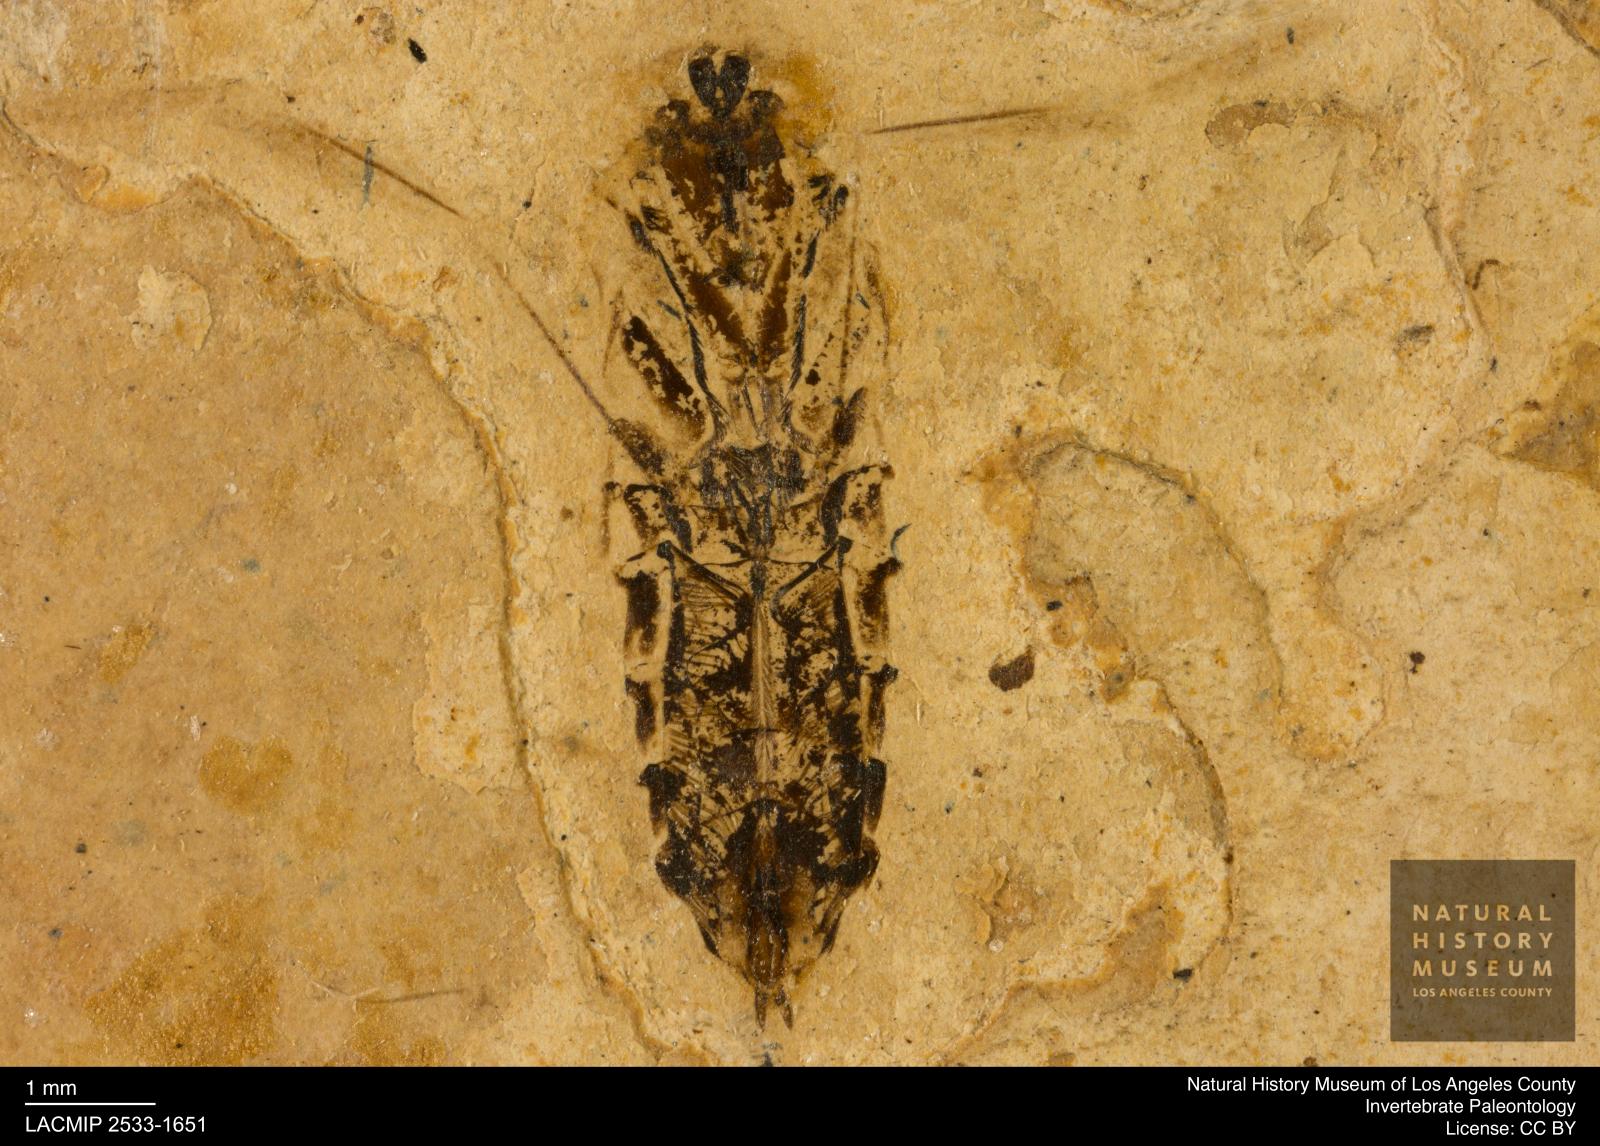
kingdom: Animalia
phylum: Arthropoda
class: Insecta
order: Hemiptera
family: Notonectidae
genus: Notonecta
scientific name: Notonecta
